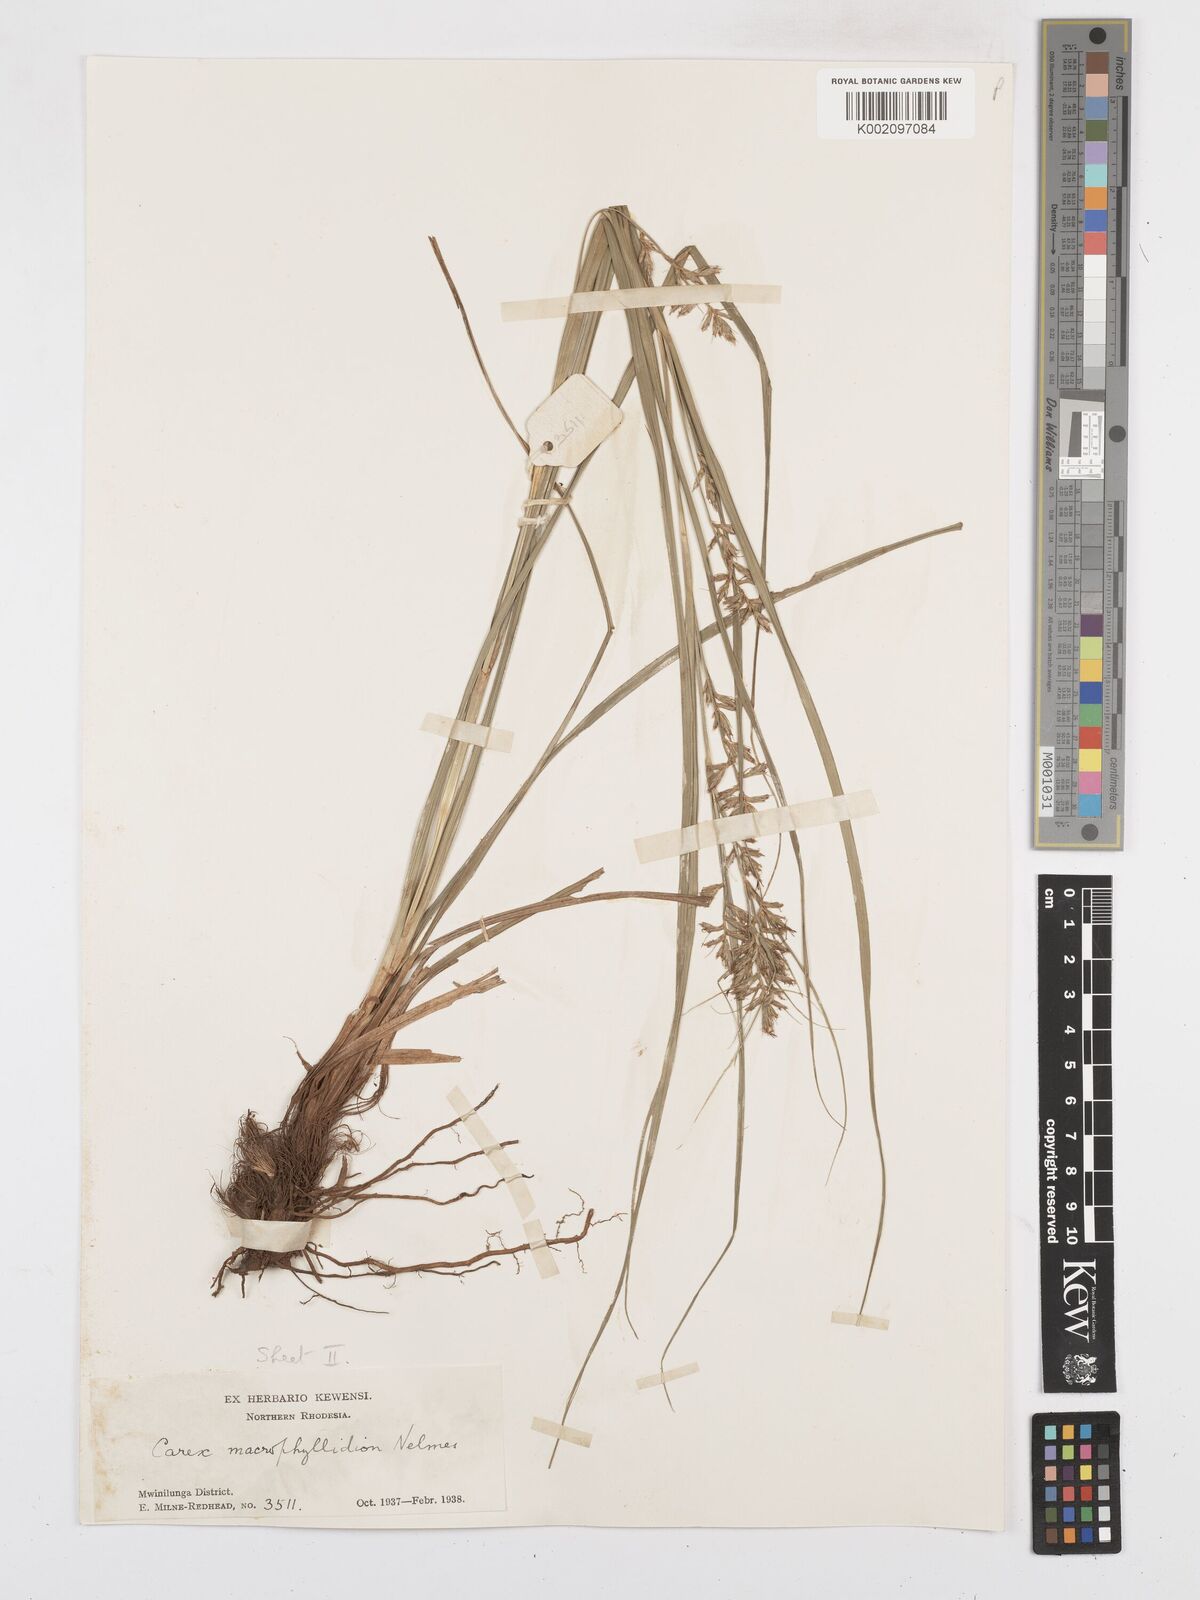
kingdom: Plantae
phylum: Tracheophyta
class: Liliopsida
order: Poales
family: Cyperaceae
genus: Carex
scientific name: Carex macrophyllidion
